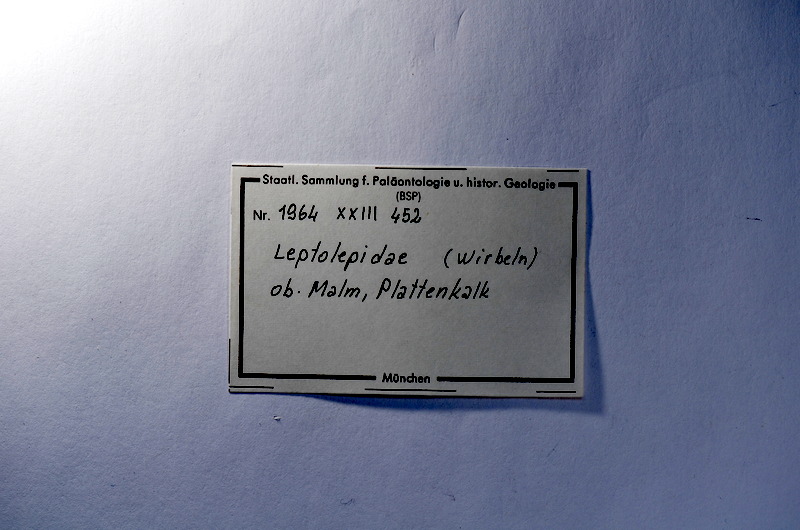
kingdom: Animalia
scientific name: Animalia
